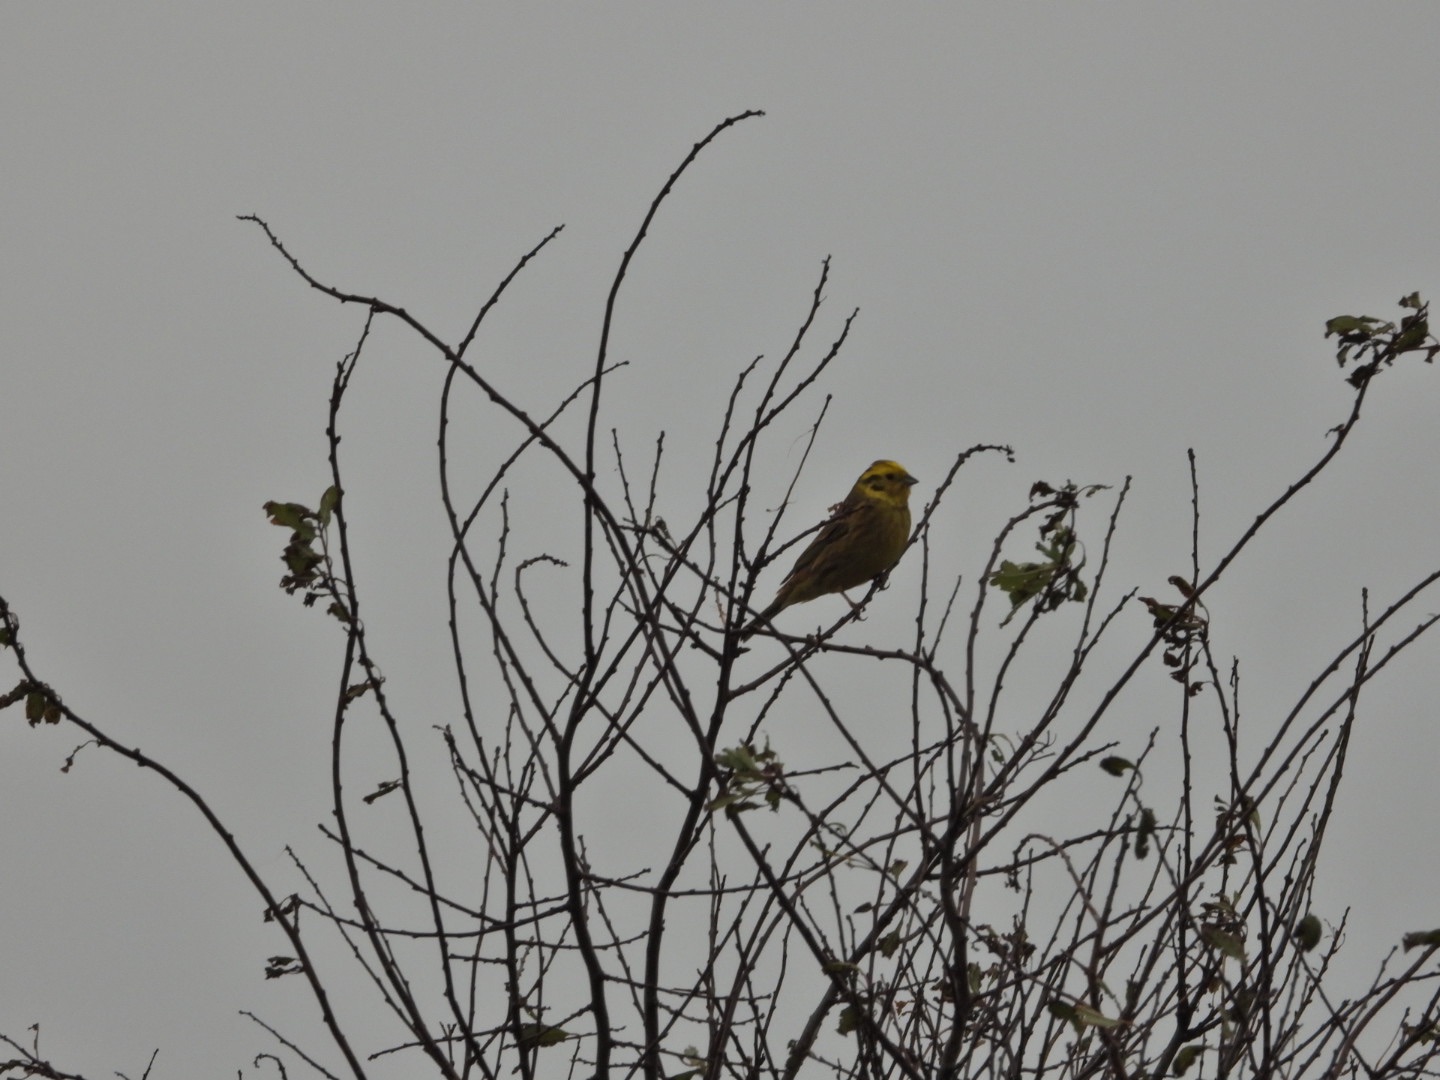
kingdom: Animalia
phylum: Chordata
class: Aves
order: Passeriformes
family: Emberizidae
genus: Emberiza
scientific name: Emberiza citrinella
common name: Gulspurv
